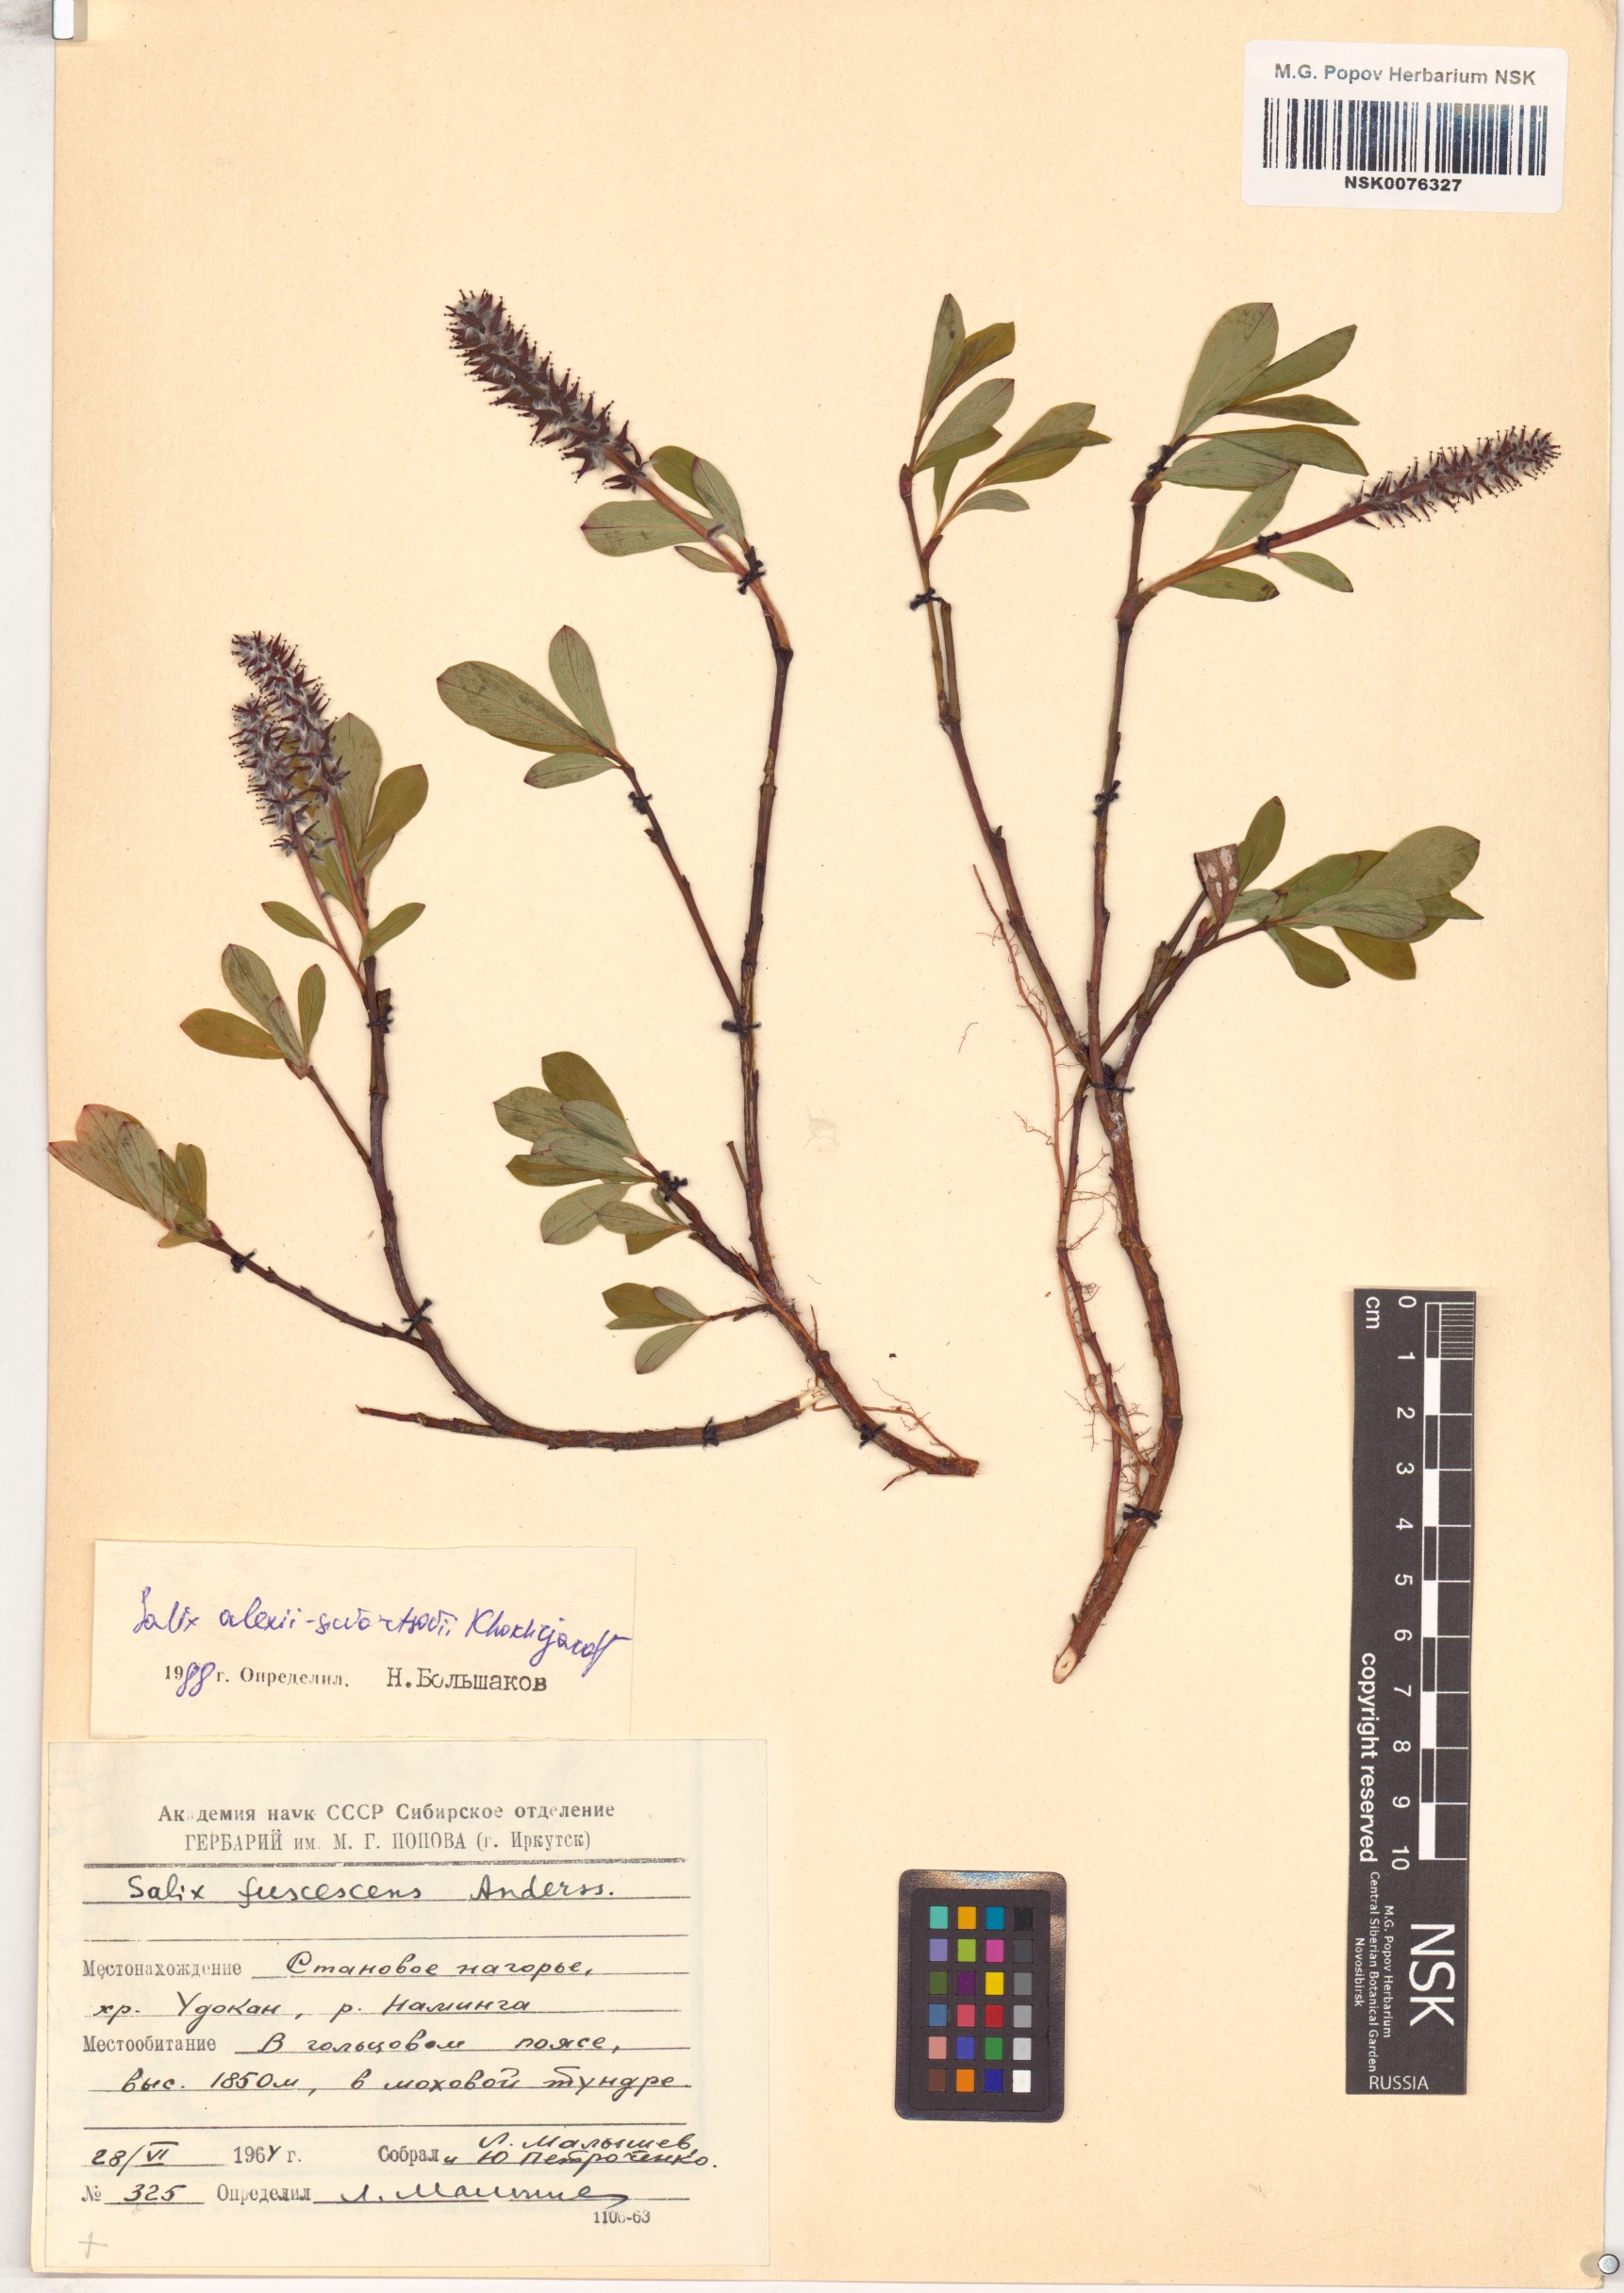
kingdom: Plantae
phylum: Tracheophyta
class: Magnoliopsida
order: Malpighiales
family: Salicaceae
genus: Salix
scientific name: Salix alexii-skvortzovii
